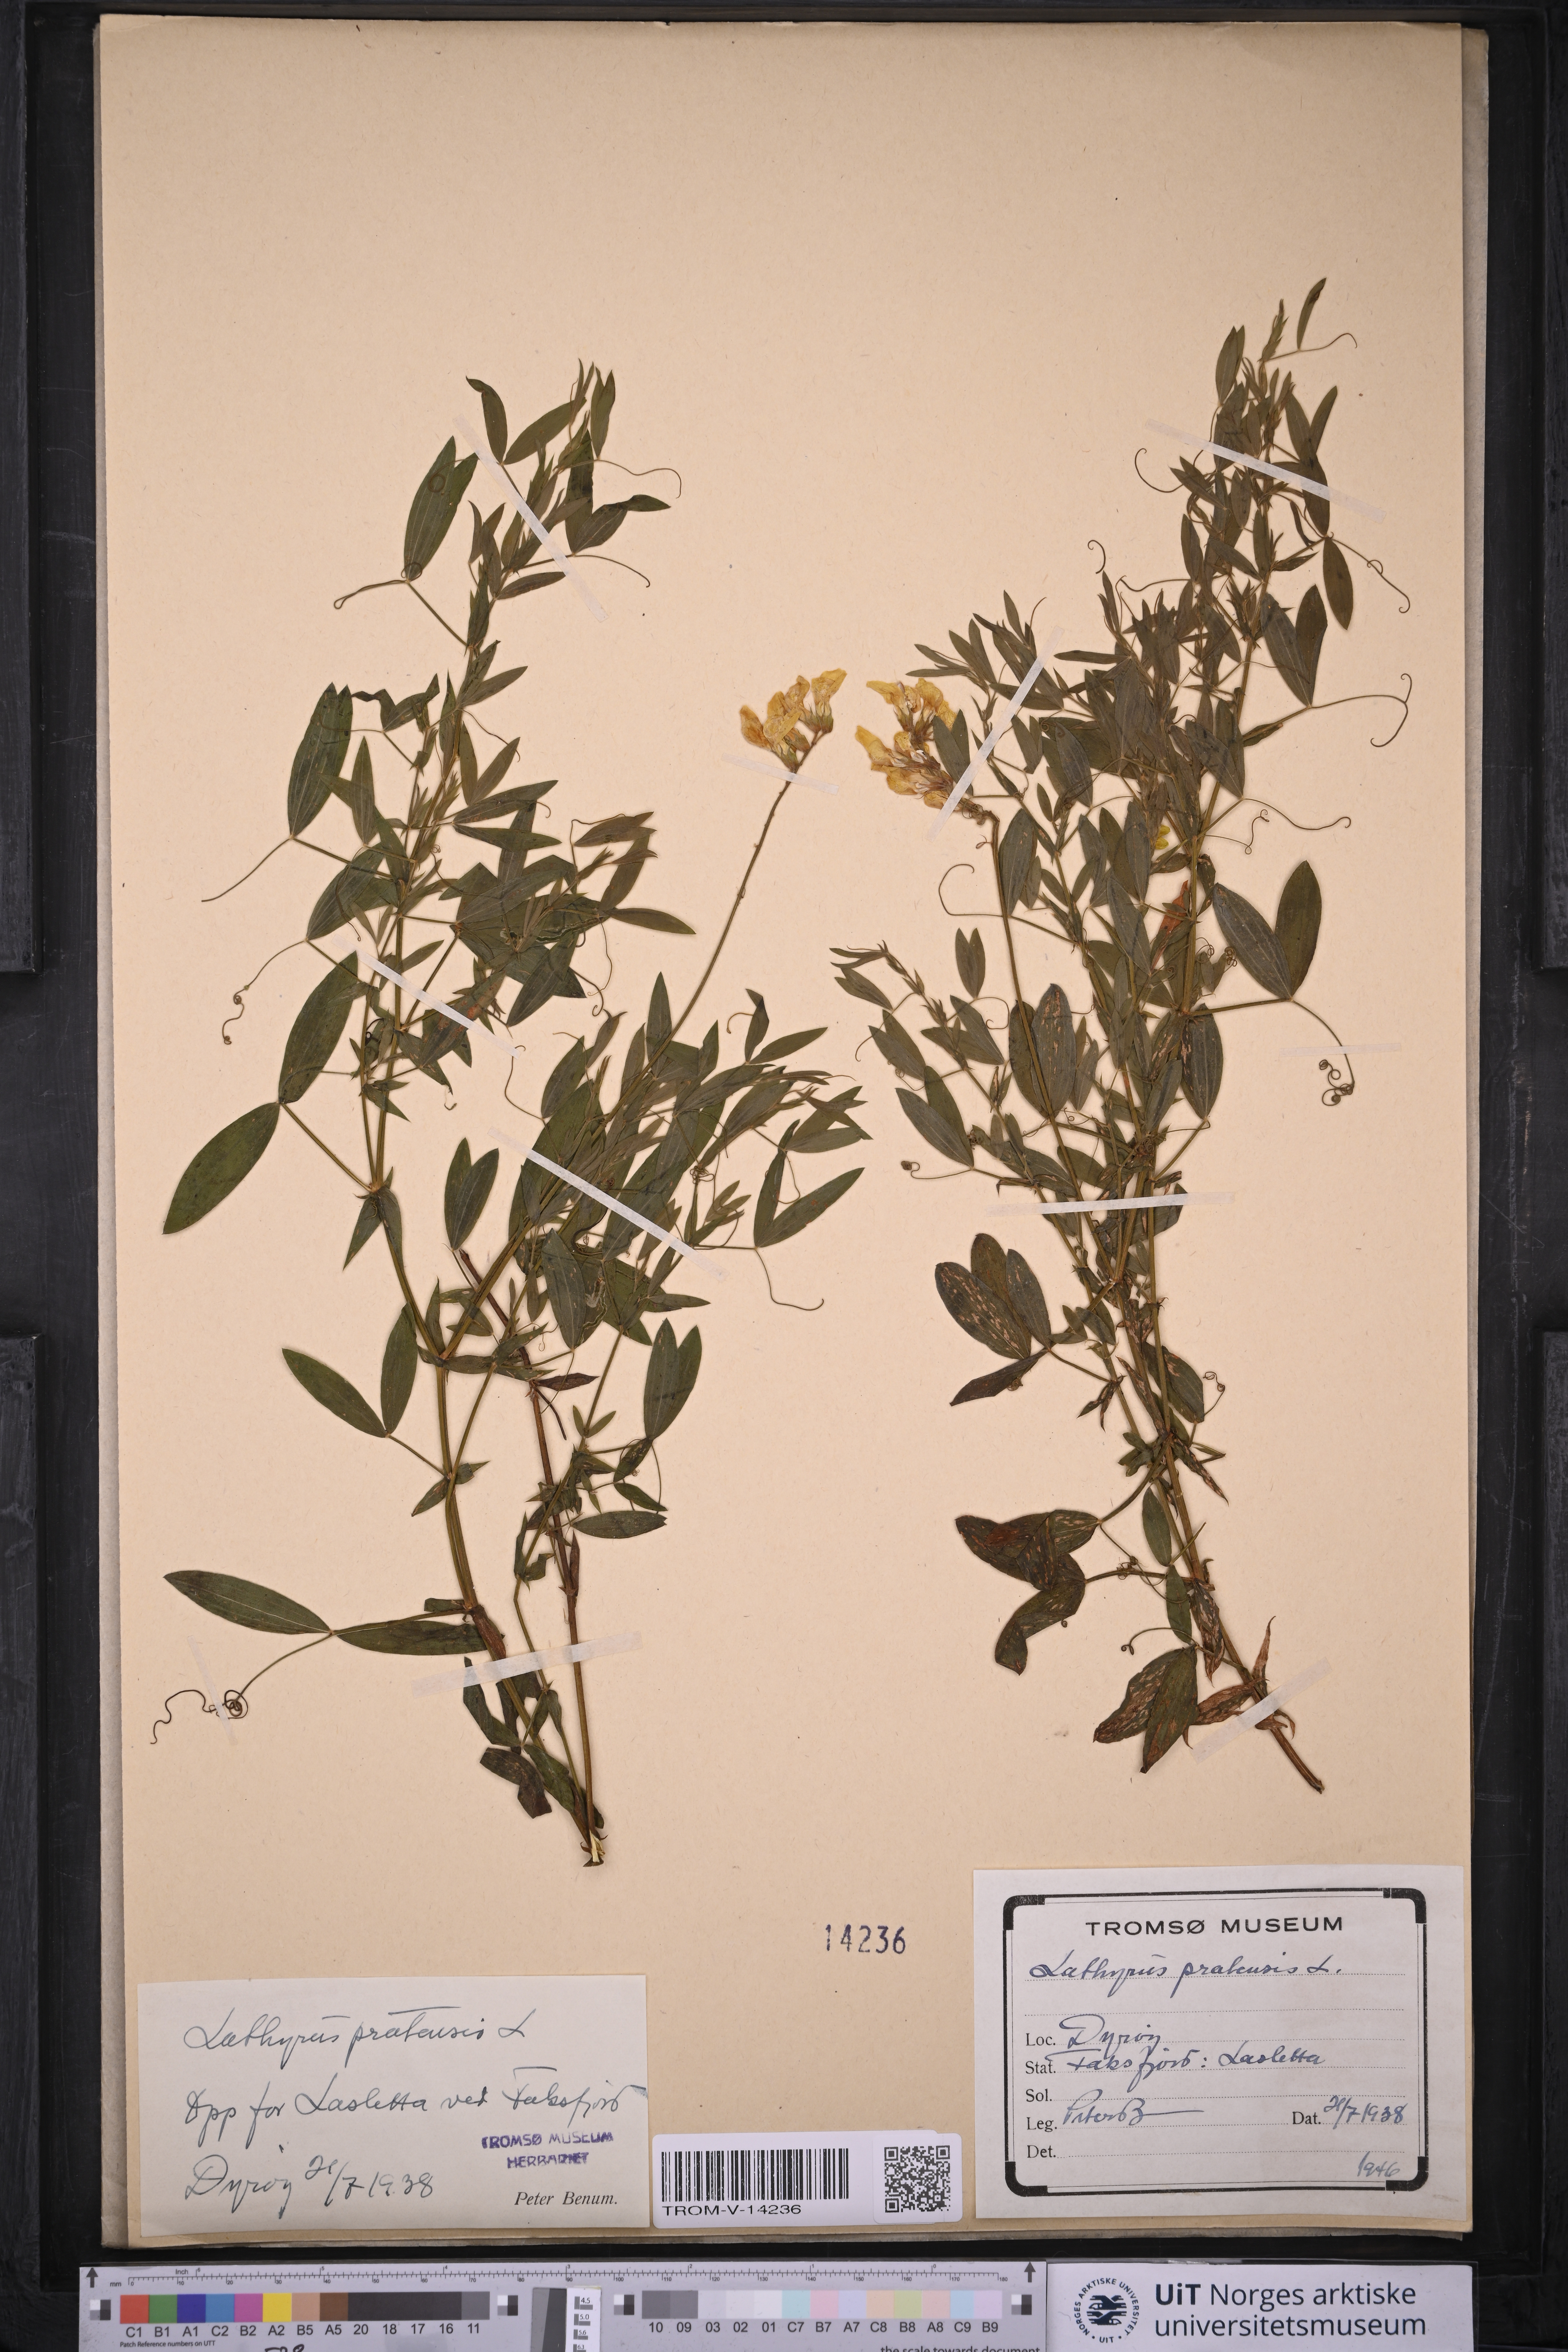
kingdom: Plantae
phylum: Tracheophyta
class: Magnoliopsida
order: Fabales
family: Fabaceae
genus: Lathyrus
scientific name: Lathyrus pratensis
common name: Meadow vetchling
